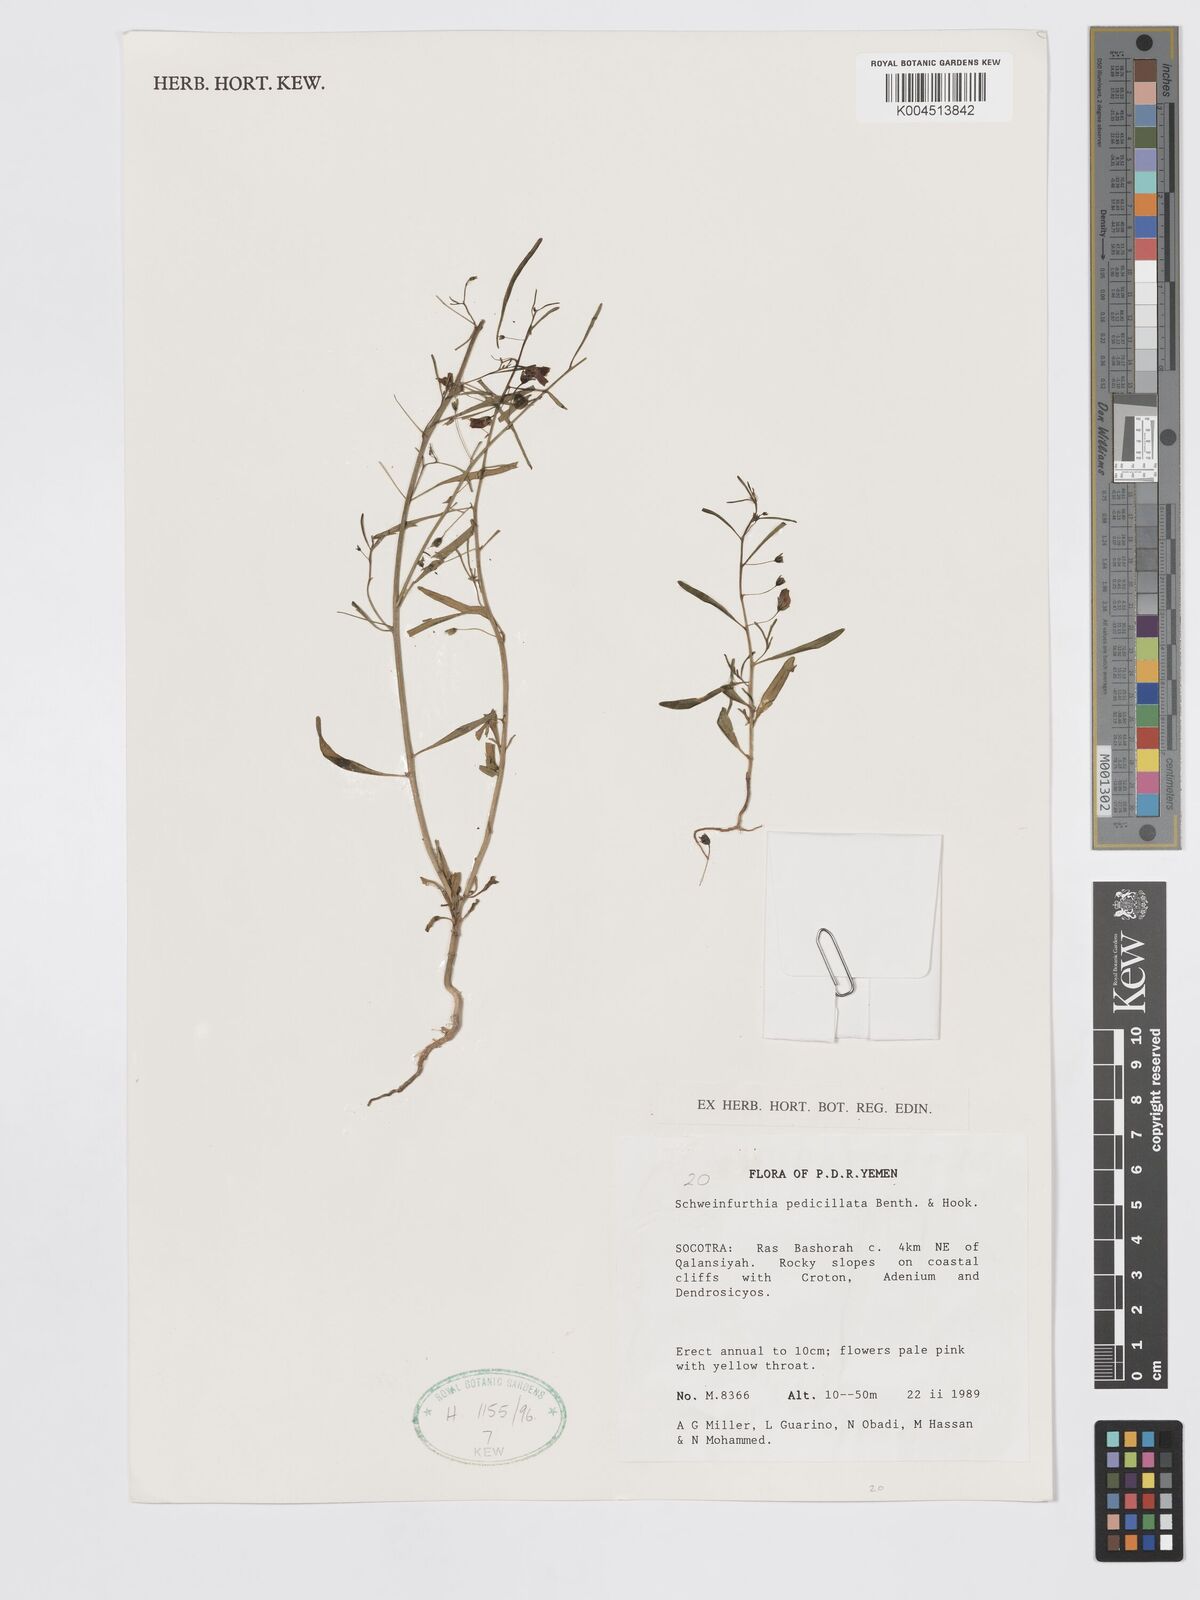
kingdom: Plantae
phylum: Tracheophyta
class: Magnoliopsida
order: Lamiales
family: Plantaginaceae
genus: Schweinfurthia
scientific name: Schweinfurthia pedicellata
